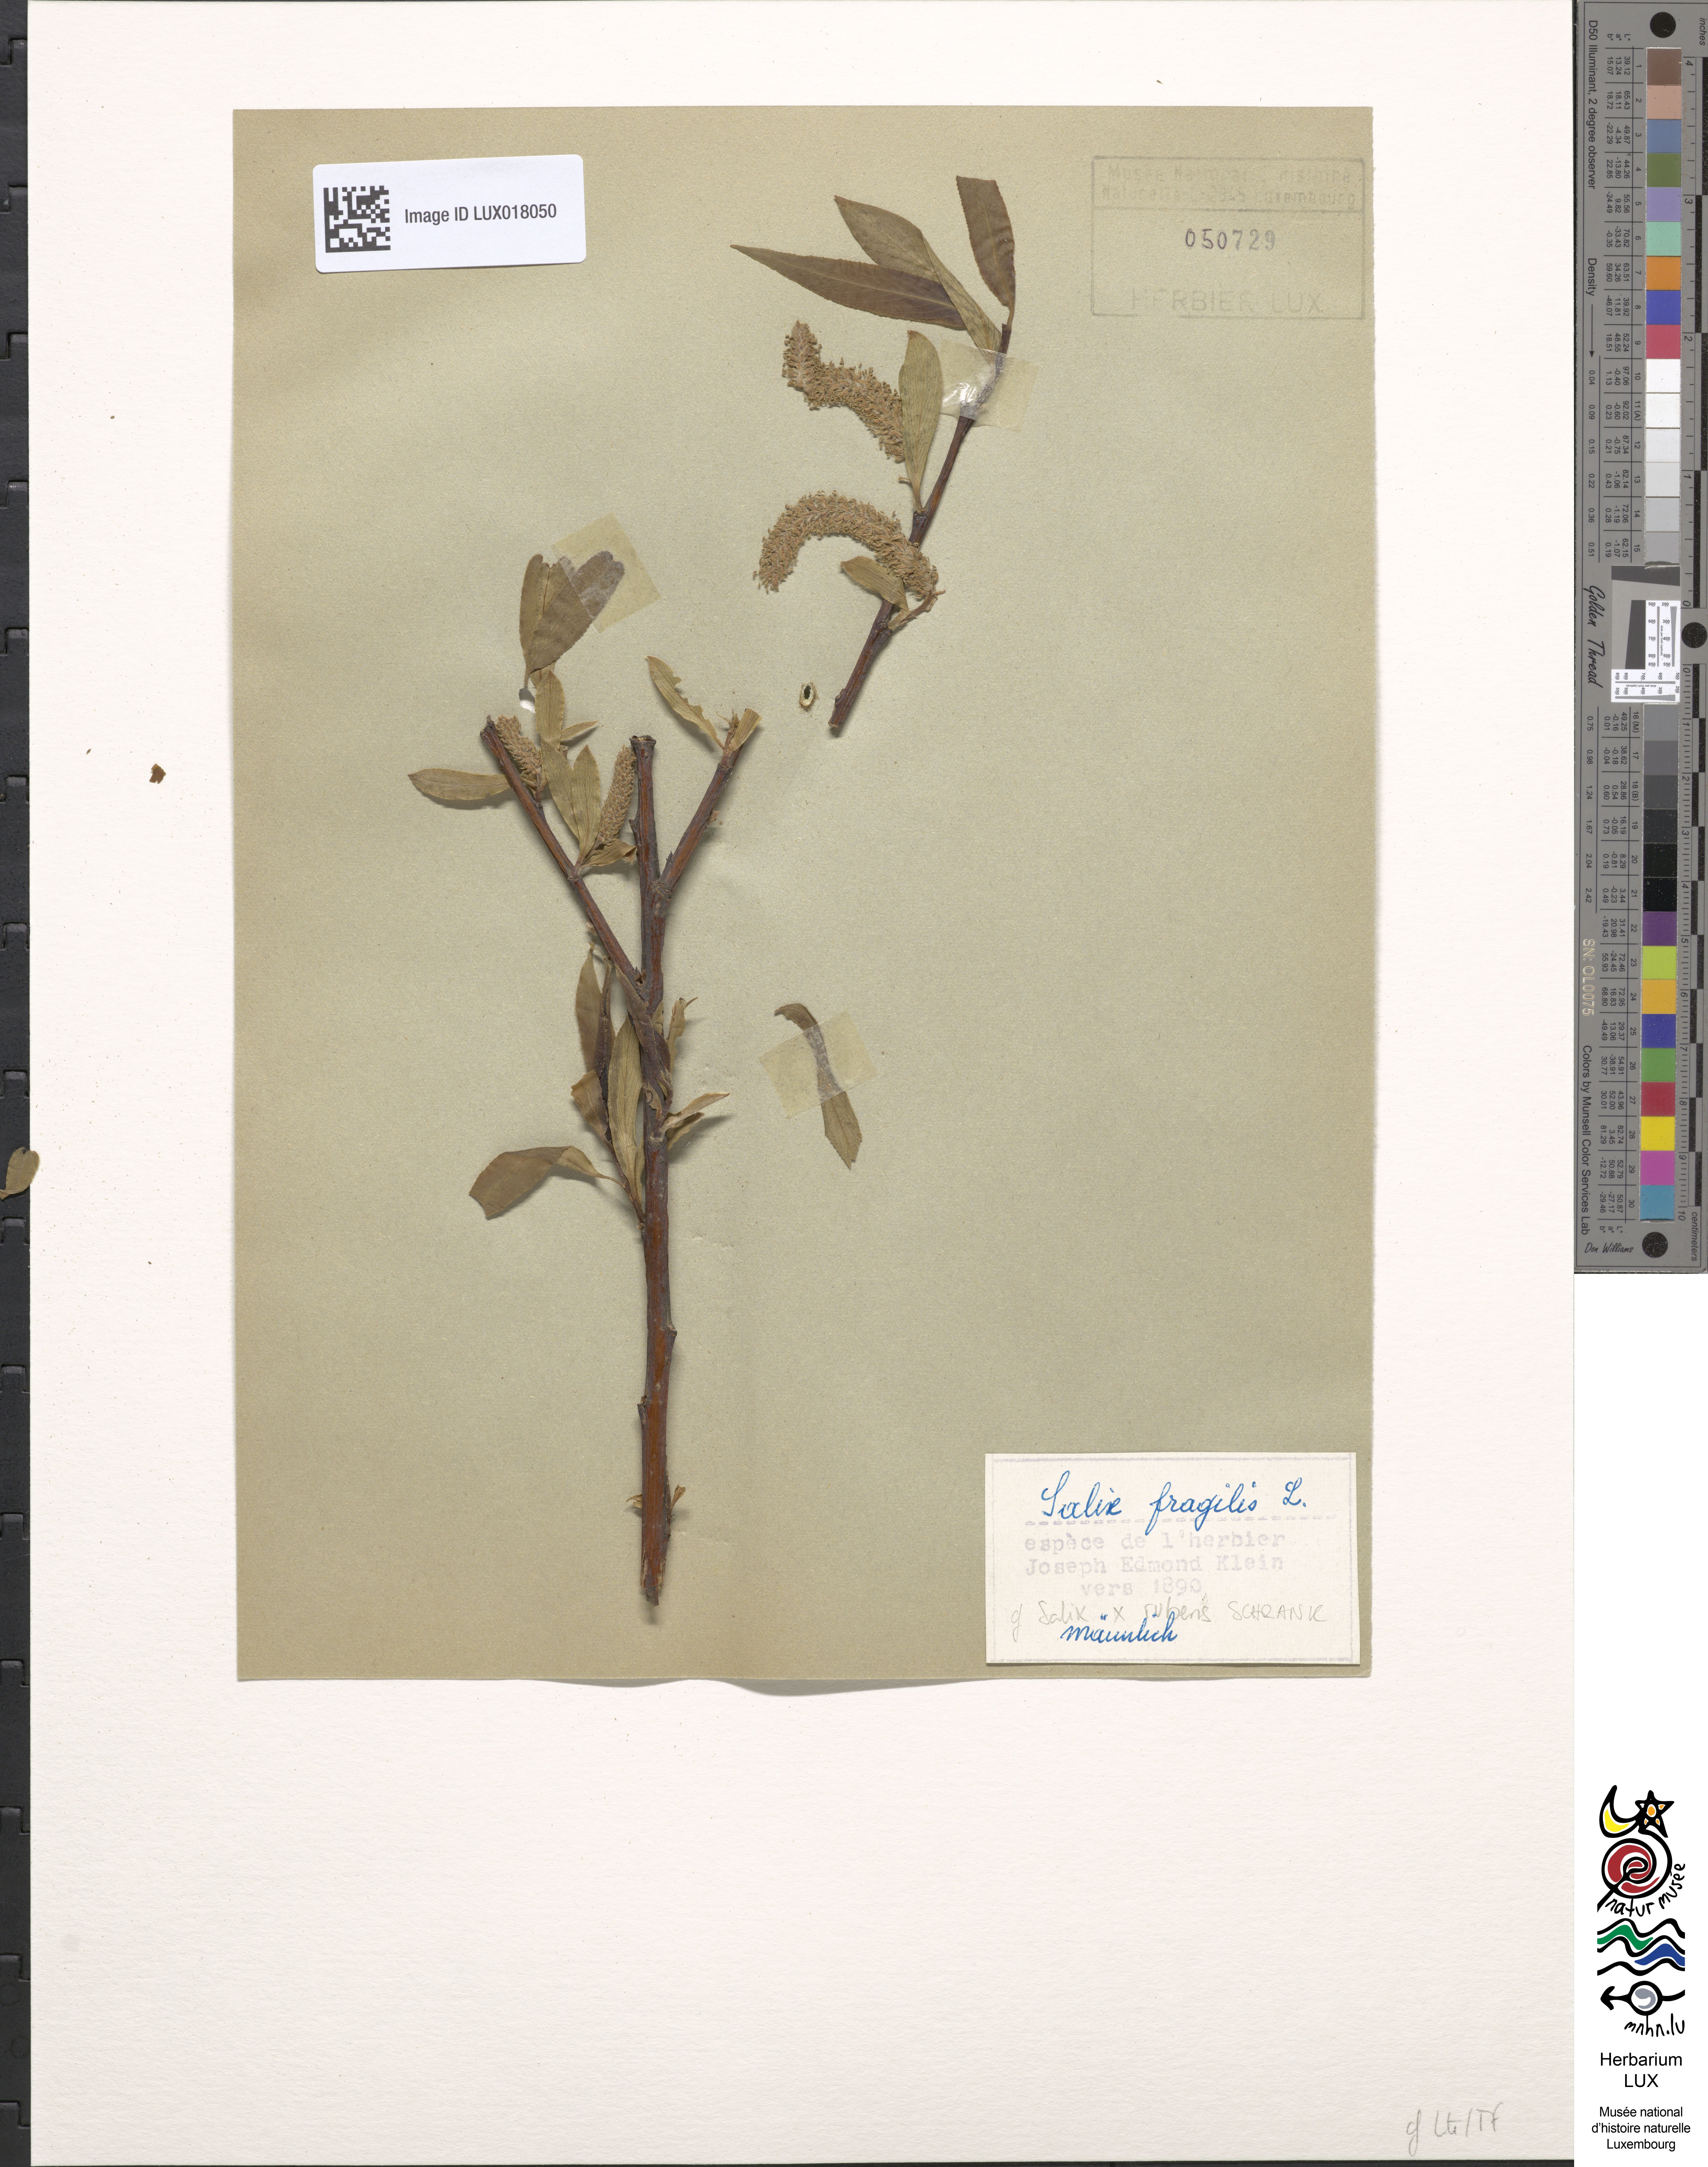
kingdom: Plantae
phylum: Tracheophyta
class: Magnoliopsida
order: Malpighiales
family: Salicaceae
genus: Salix
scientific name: Salix rubens
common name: Hybrid crack willow
